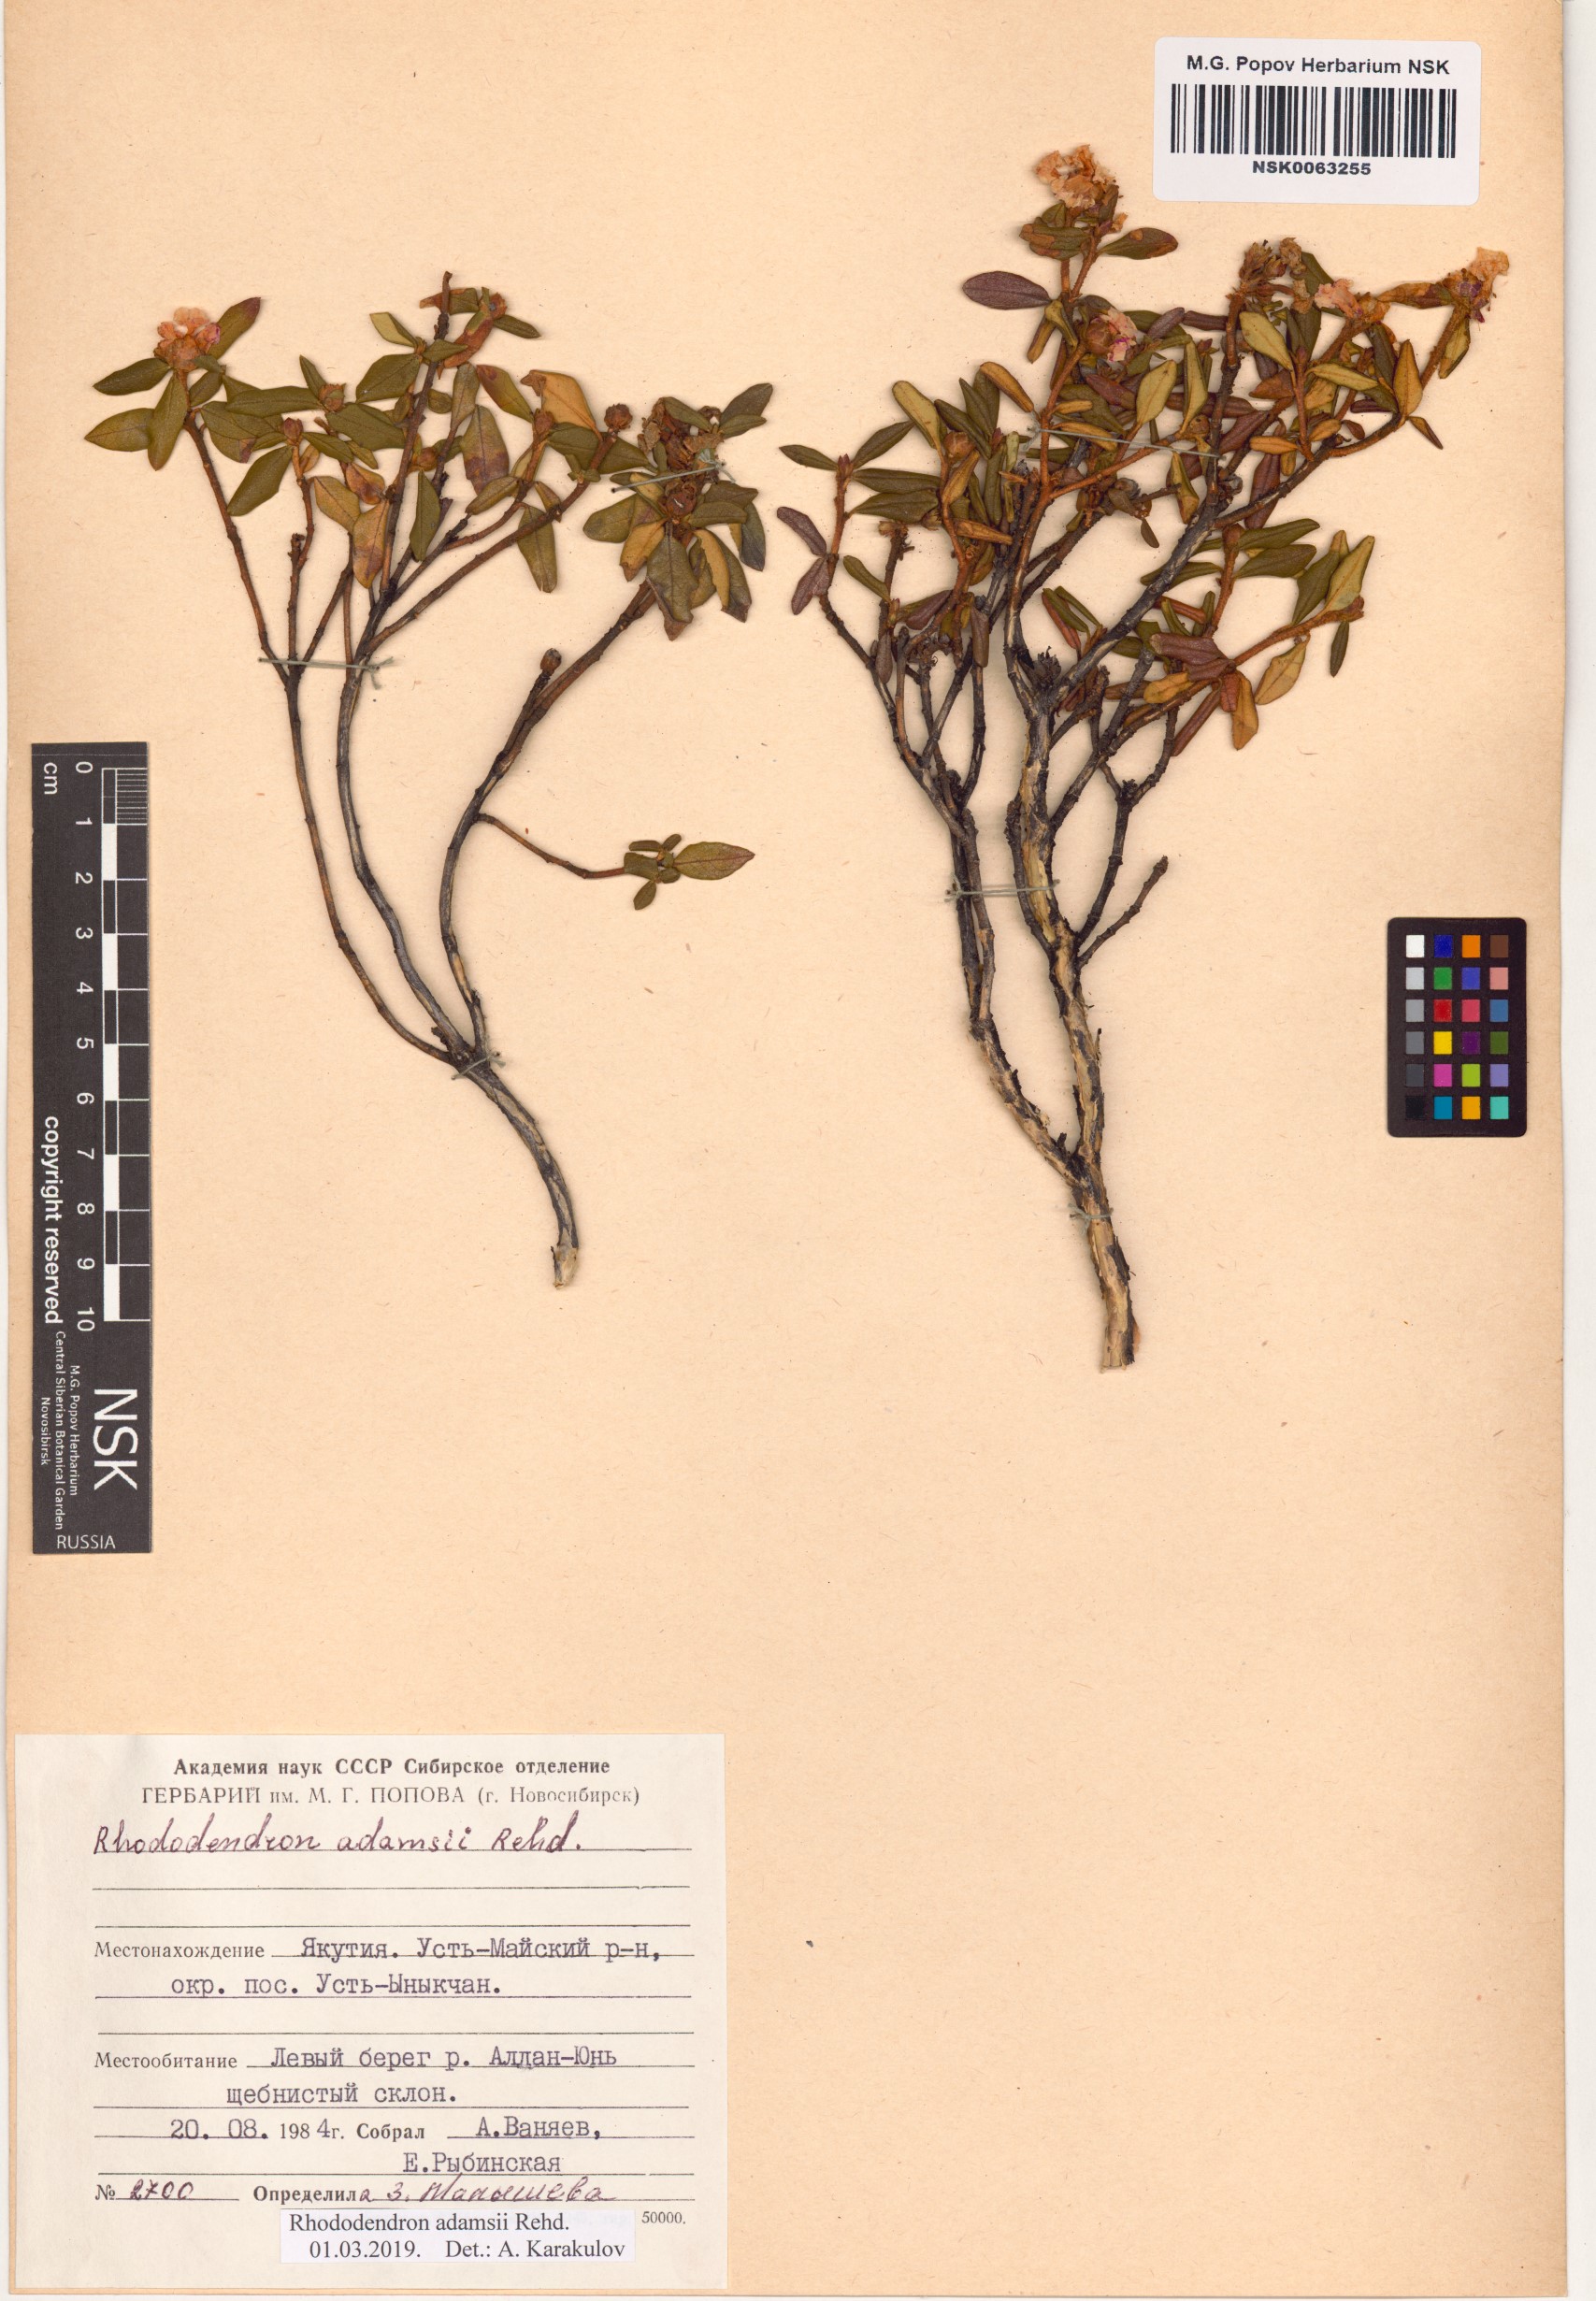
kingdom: Plantae
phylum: Tracheophyta
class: Magnoliopsida
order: Ericales
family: Ericaceae
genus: Rhododendron
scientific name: Rhododendron adamsii
